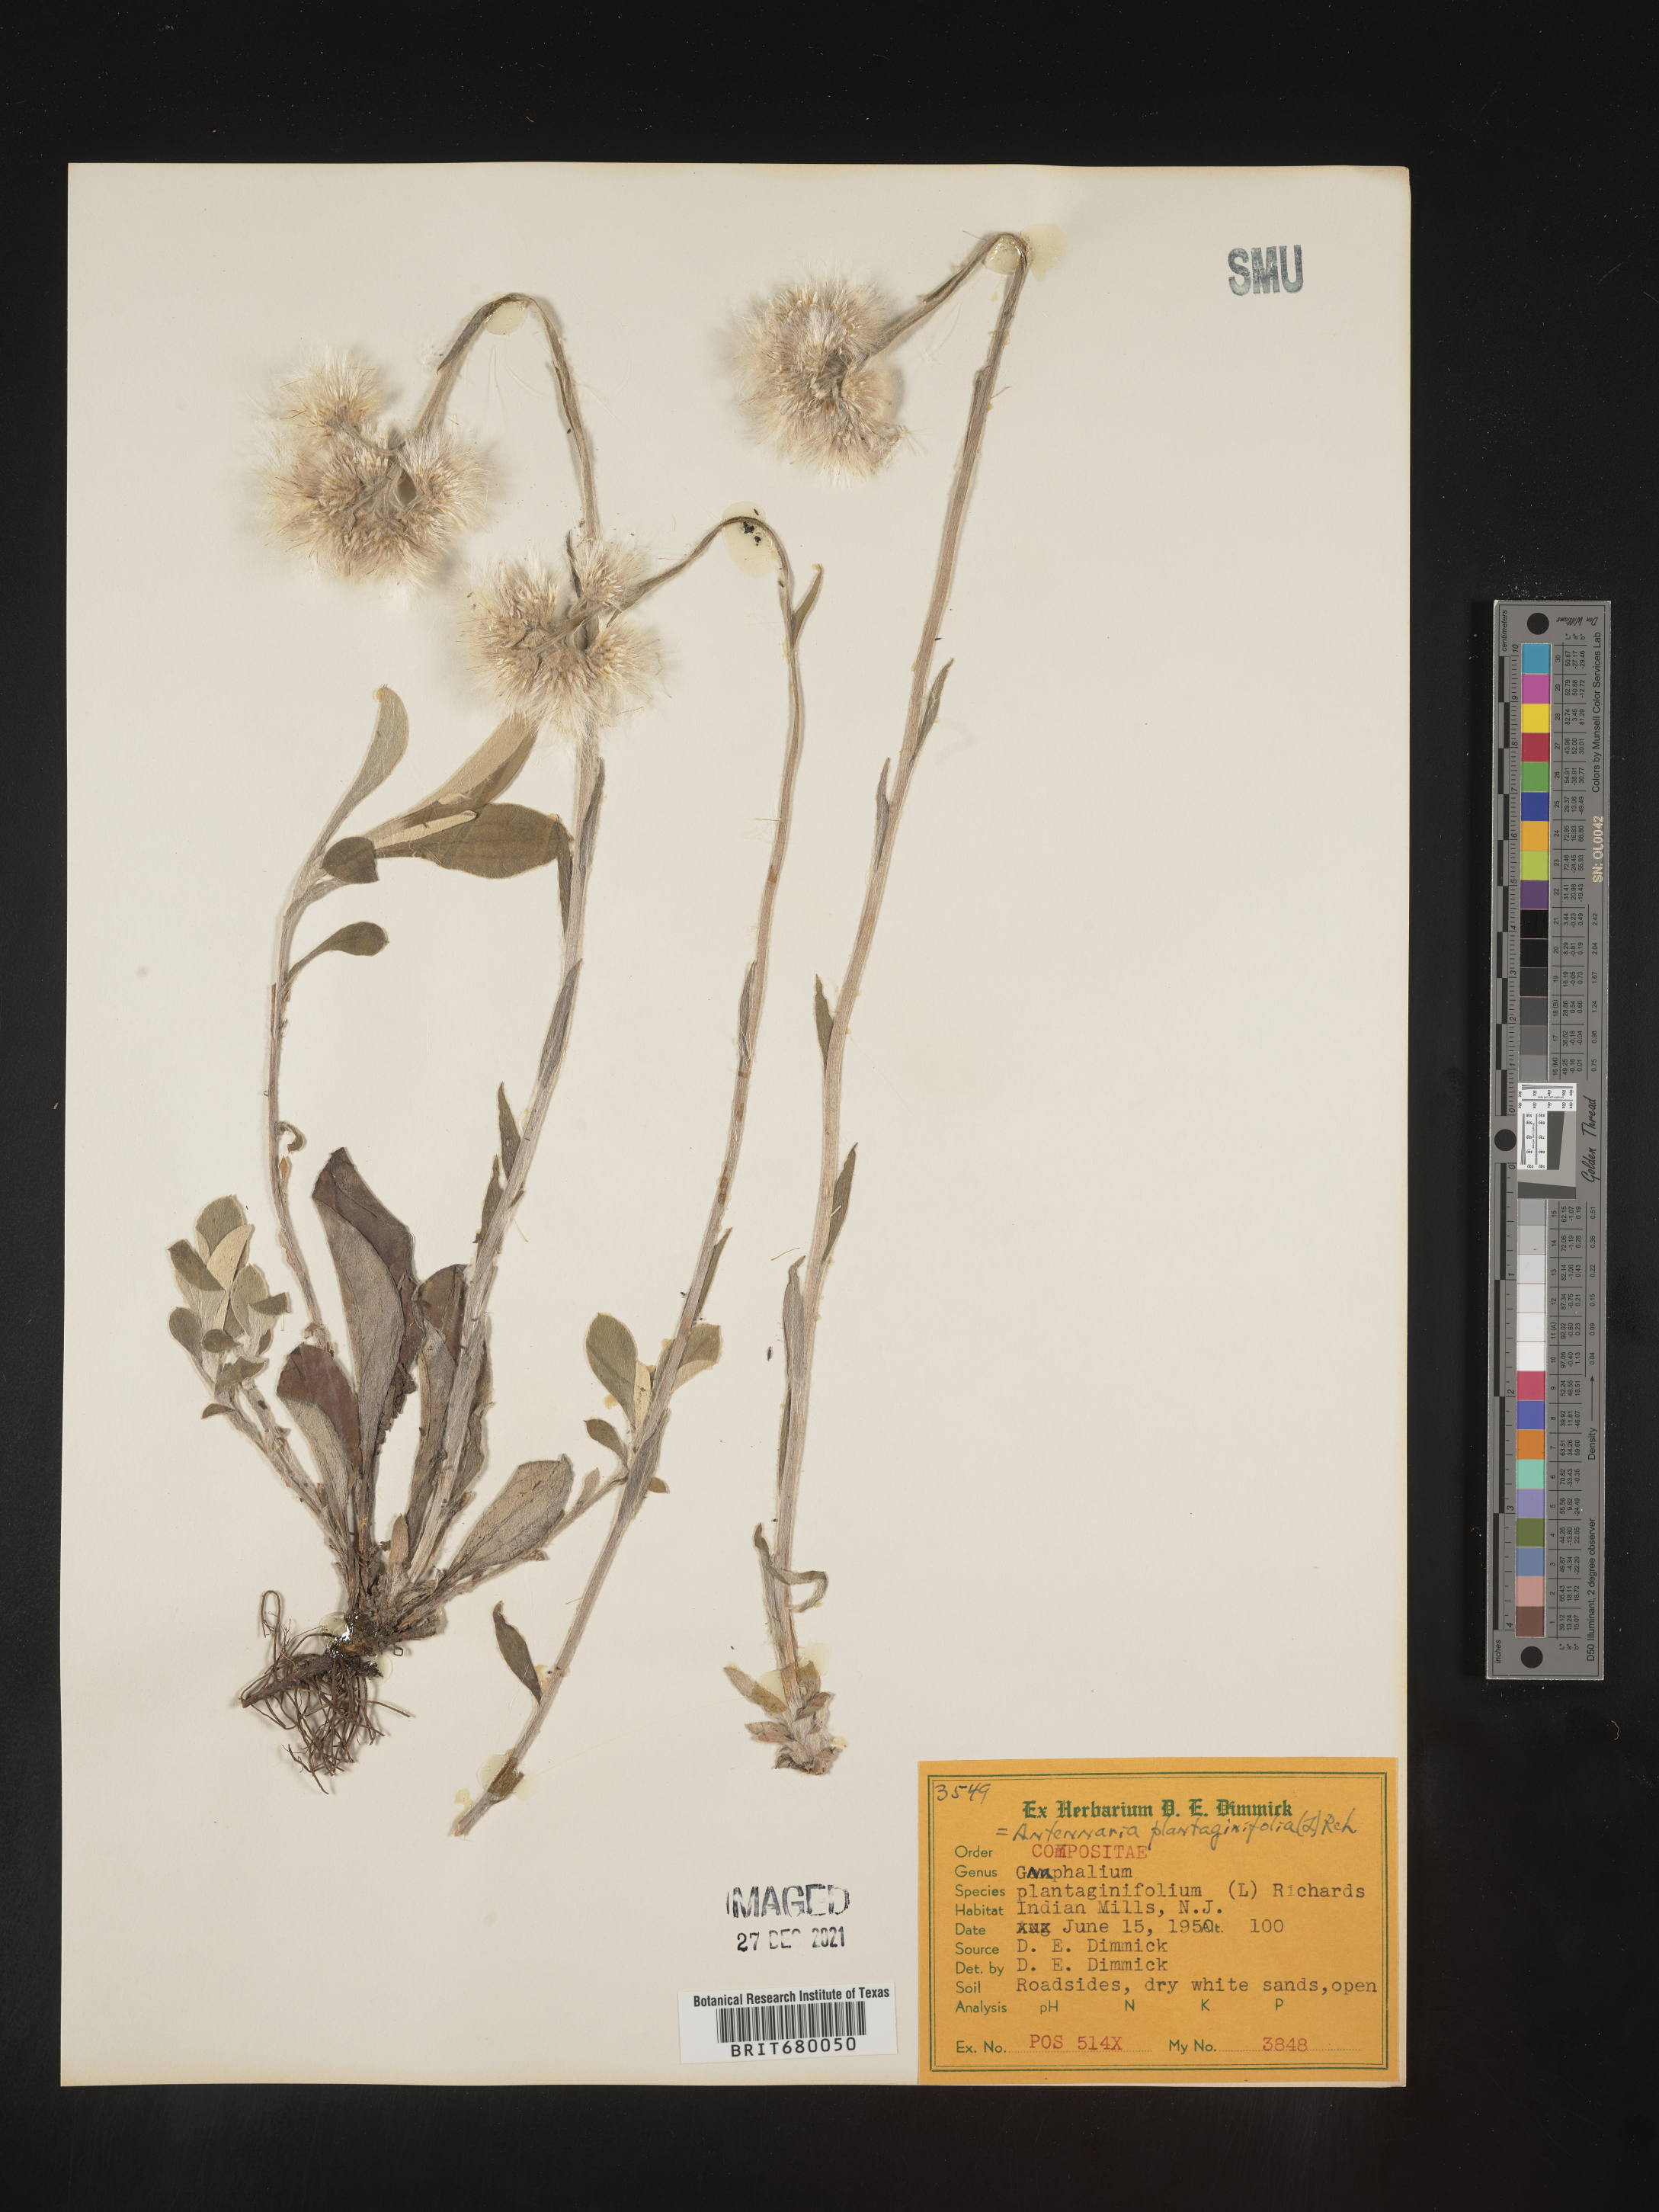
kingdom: Plantae
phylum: Tracheophyta
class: Magnoliopsida
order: Asterales
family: Asteraceae
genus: Antennaria
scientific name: Antennaria plantaginifolia
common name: Plantain-leaved pussytoes
